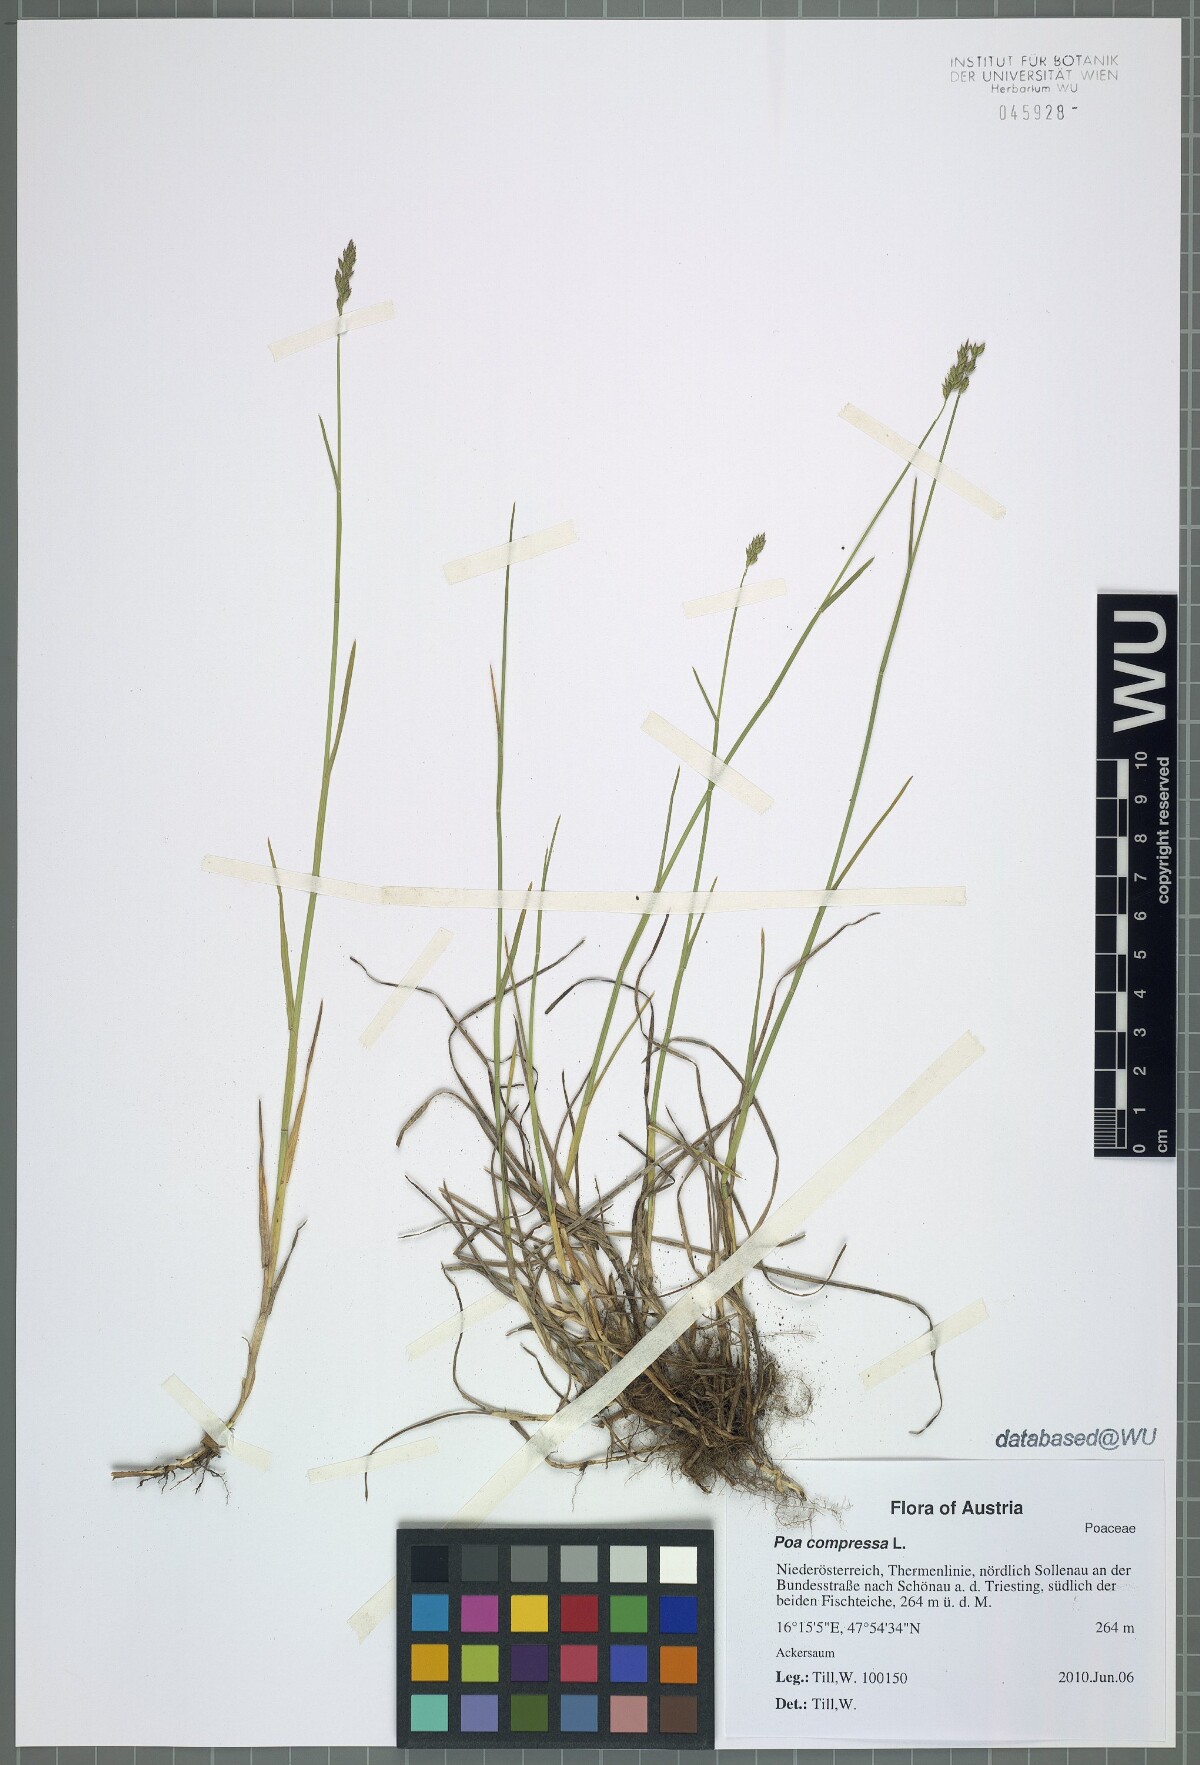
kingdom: Plantae
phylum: Tracheophyta
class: Liliopsida
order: Poales
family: Poaceae
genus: Poa
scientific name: Poa compressa
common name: Canada bluegrass
